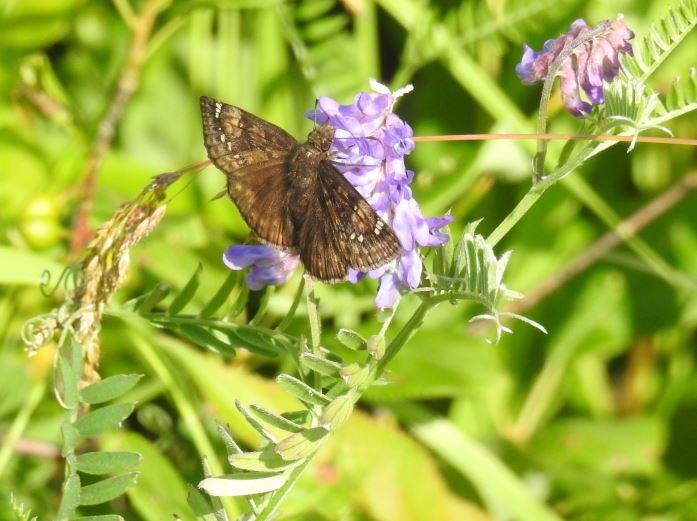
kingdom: Animalia
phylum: Arthropoda
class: Insecta
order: Lepidoptera
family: Hesperiidae
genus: Gesta
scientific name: Gesta
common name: Columbine Duskywing
